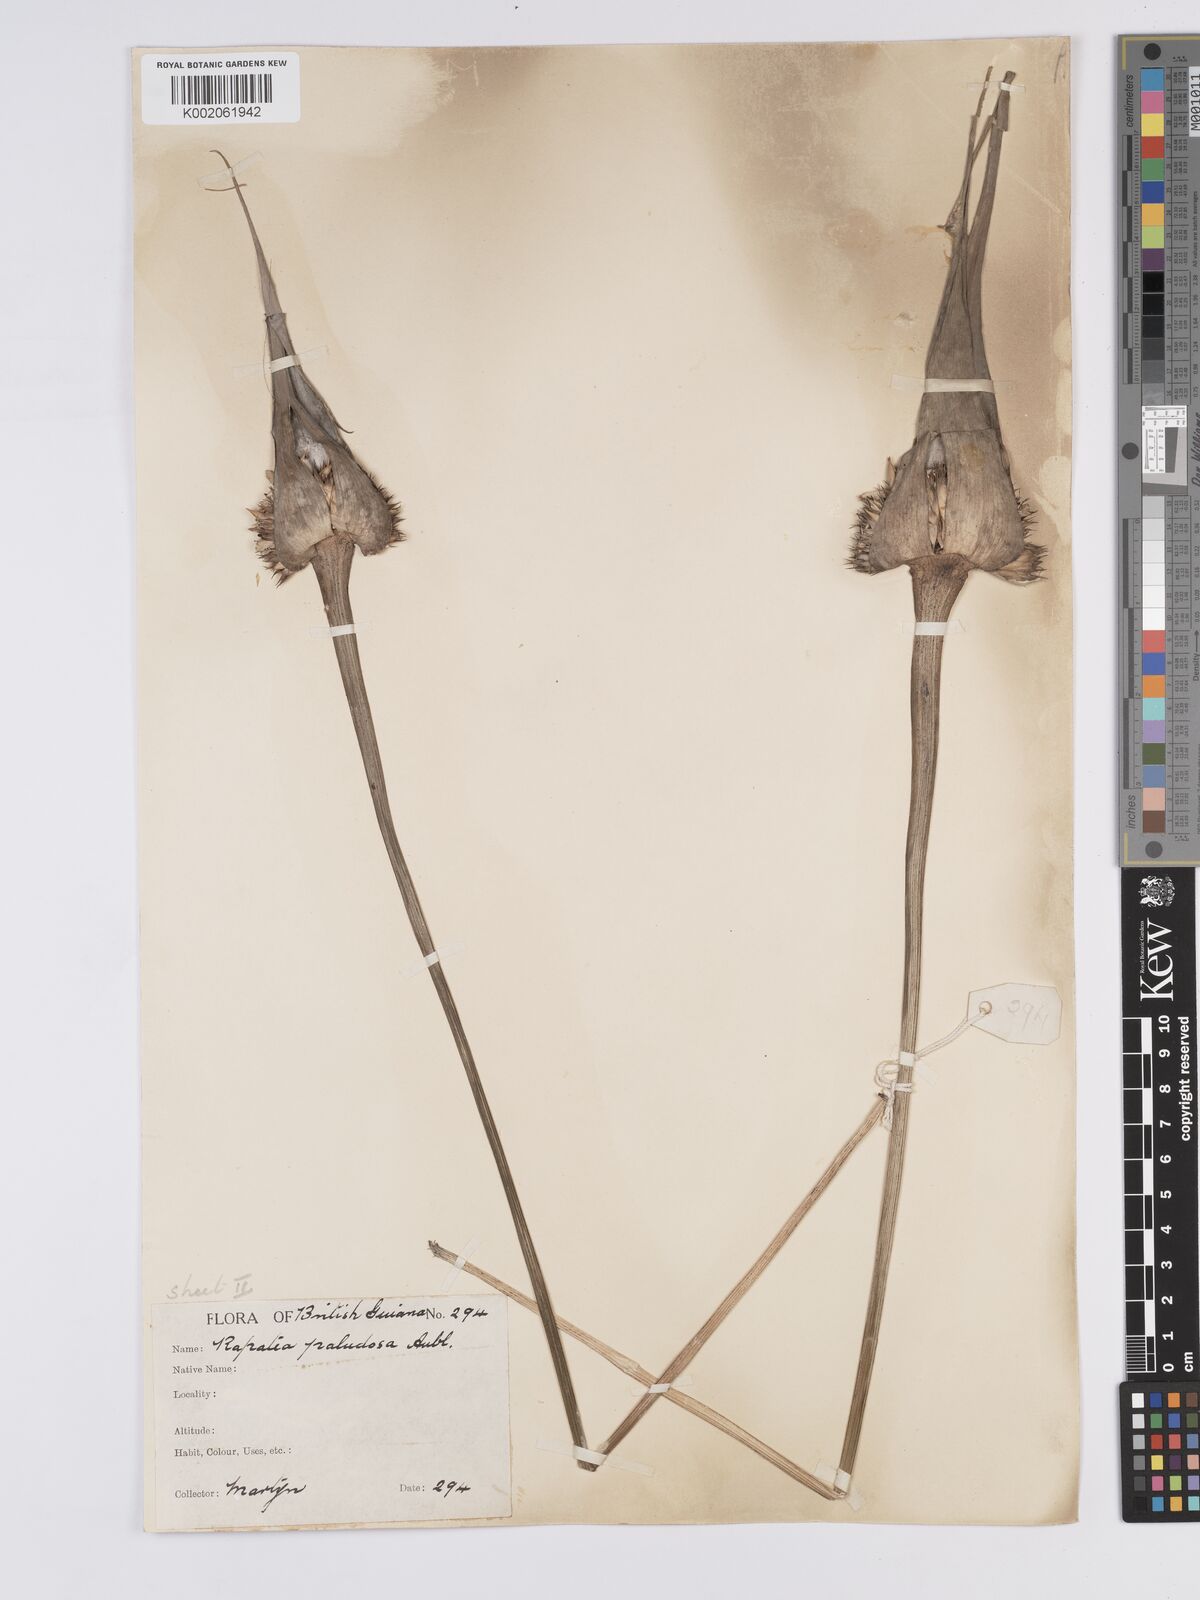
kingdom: Plantae
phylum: Tracheophyta
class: Liliopsida
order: Poales
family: Rapateaceae
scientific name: Rapateaceae
